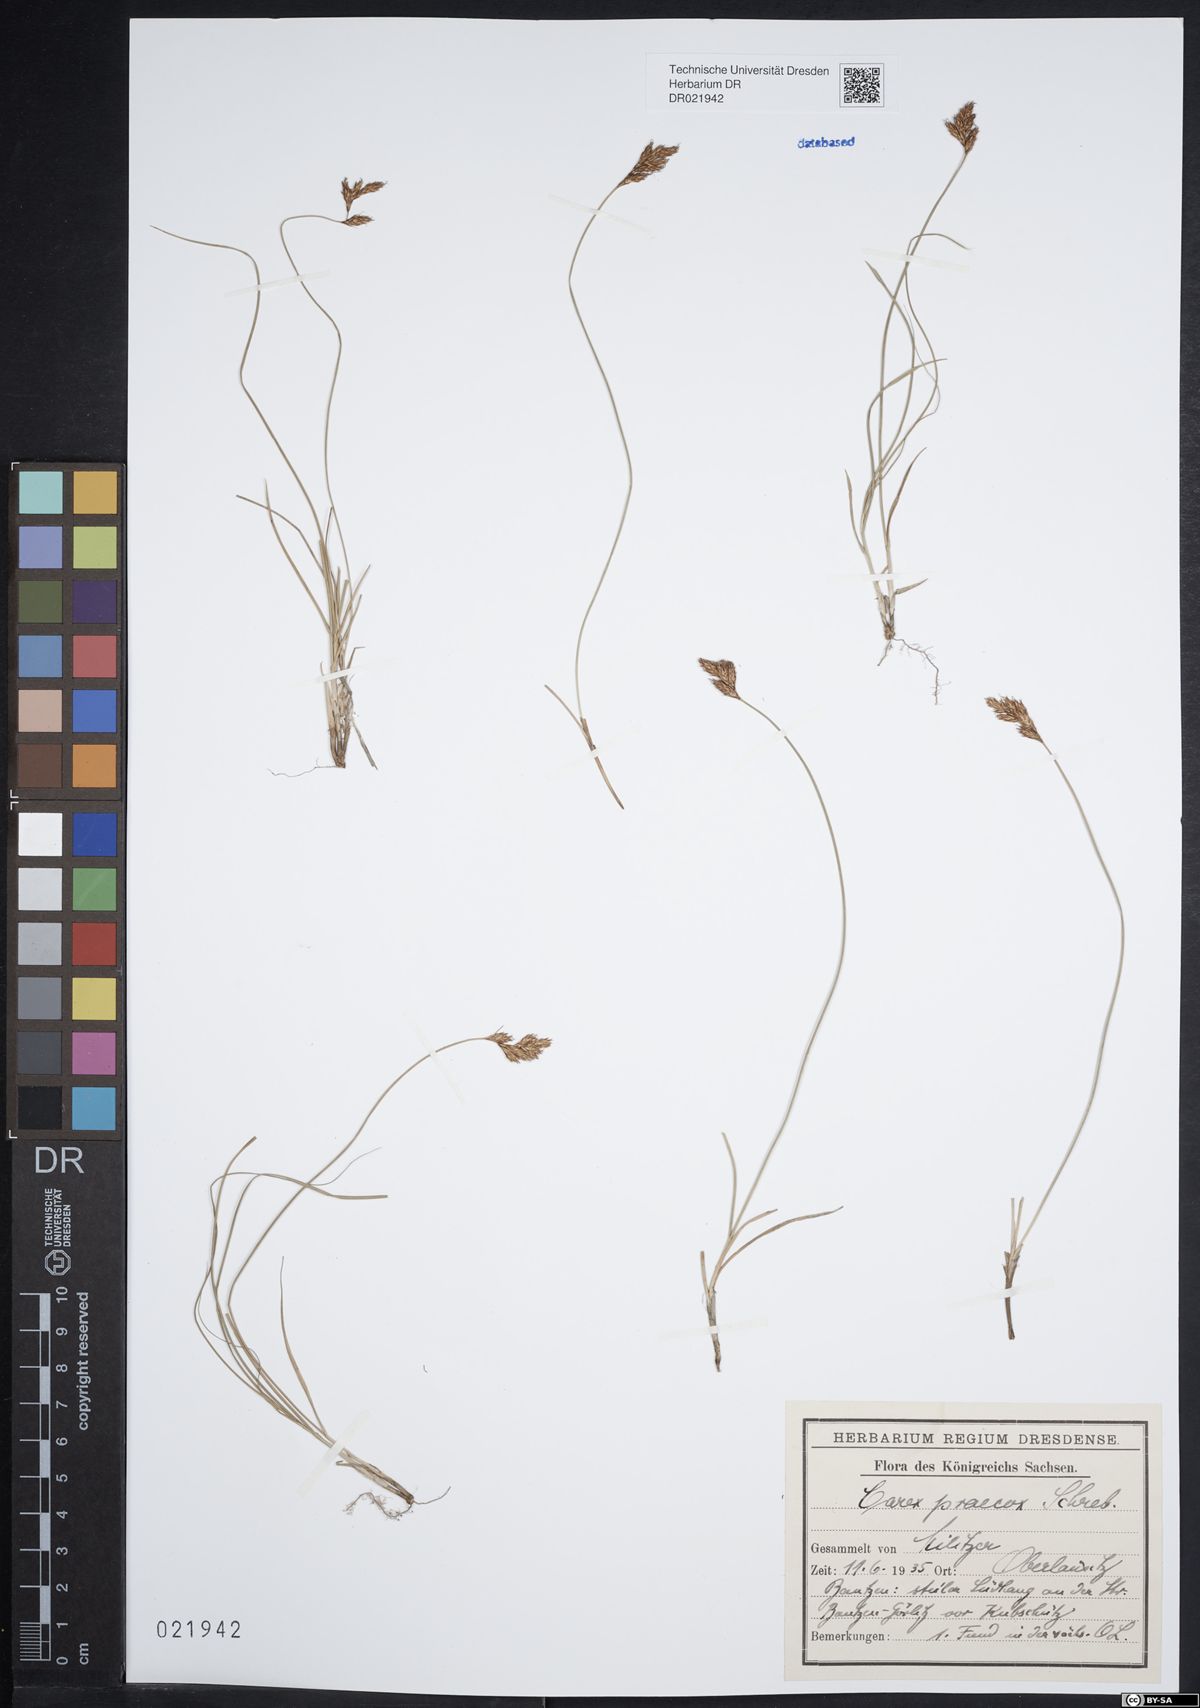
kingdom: Plantae
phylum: Tracheophyta
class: Liliopsida
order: Poales
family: Cyperaceae
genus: Carex
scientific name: Carex praecox
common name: Early sedge
